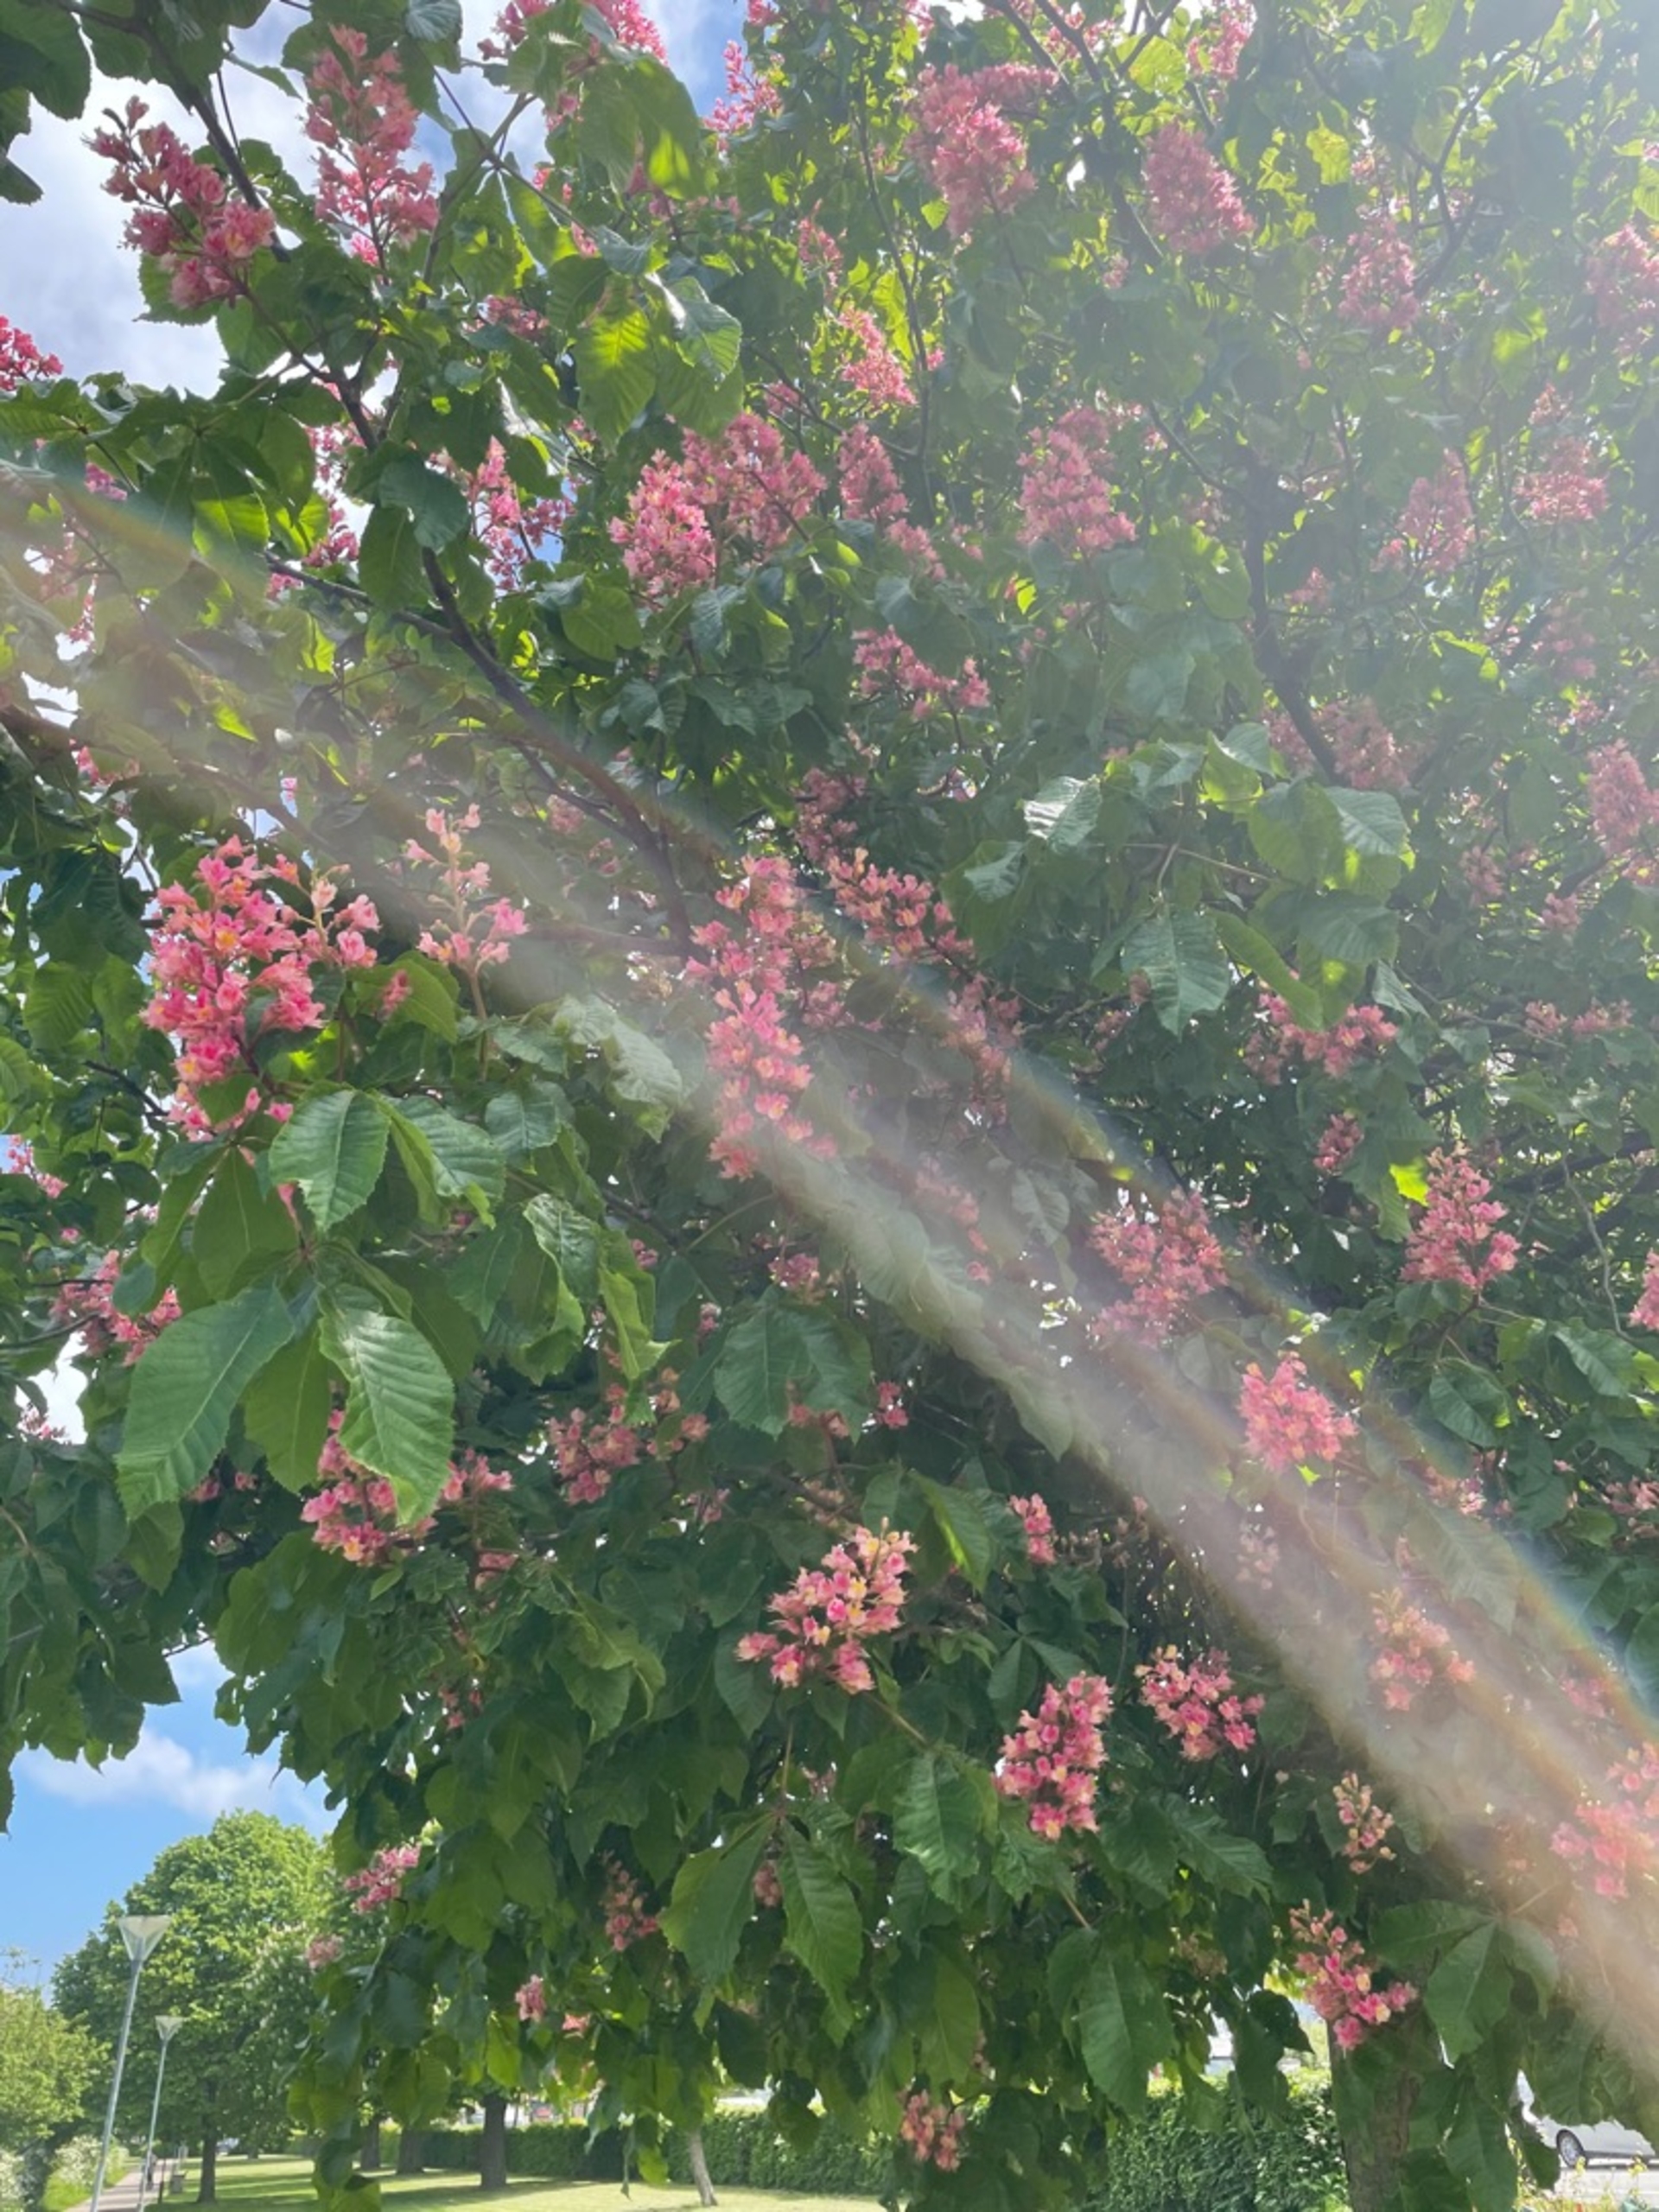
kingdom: Plantae
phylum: Tracheophyta
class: Magnoliopsida
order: Sapindales
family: Sapindaceae
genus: Aesculus
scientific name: Aesculus
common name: Hestekastanieslægten
